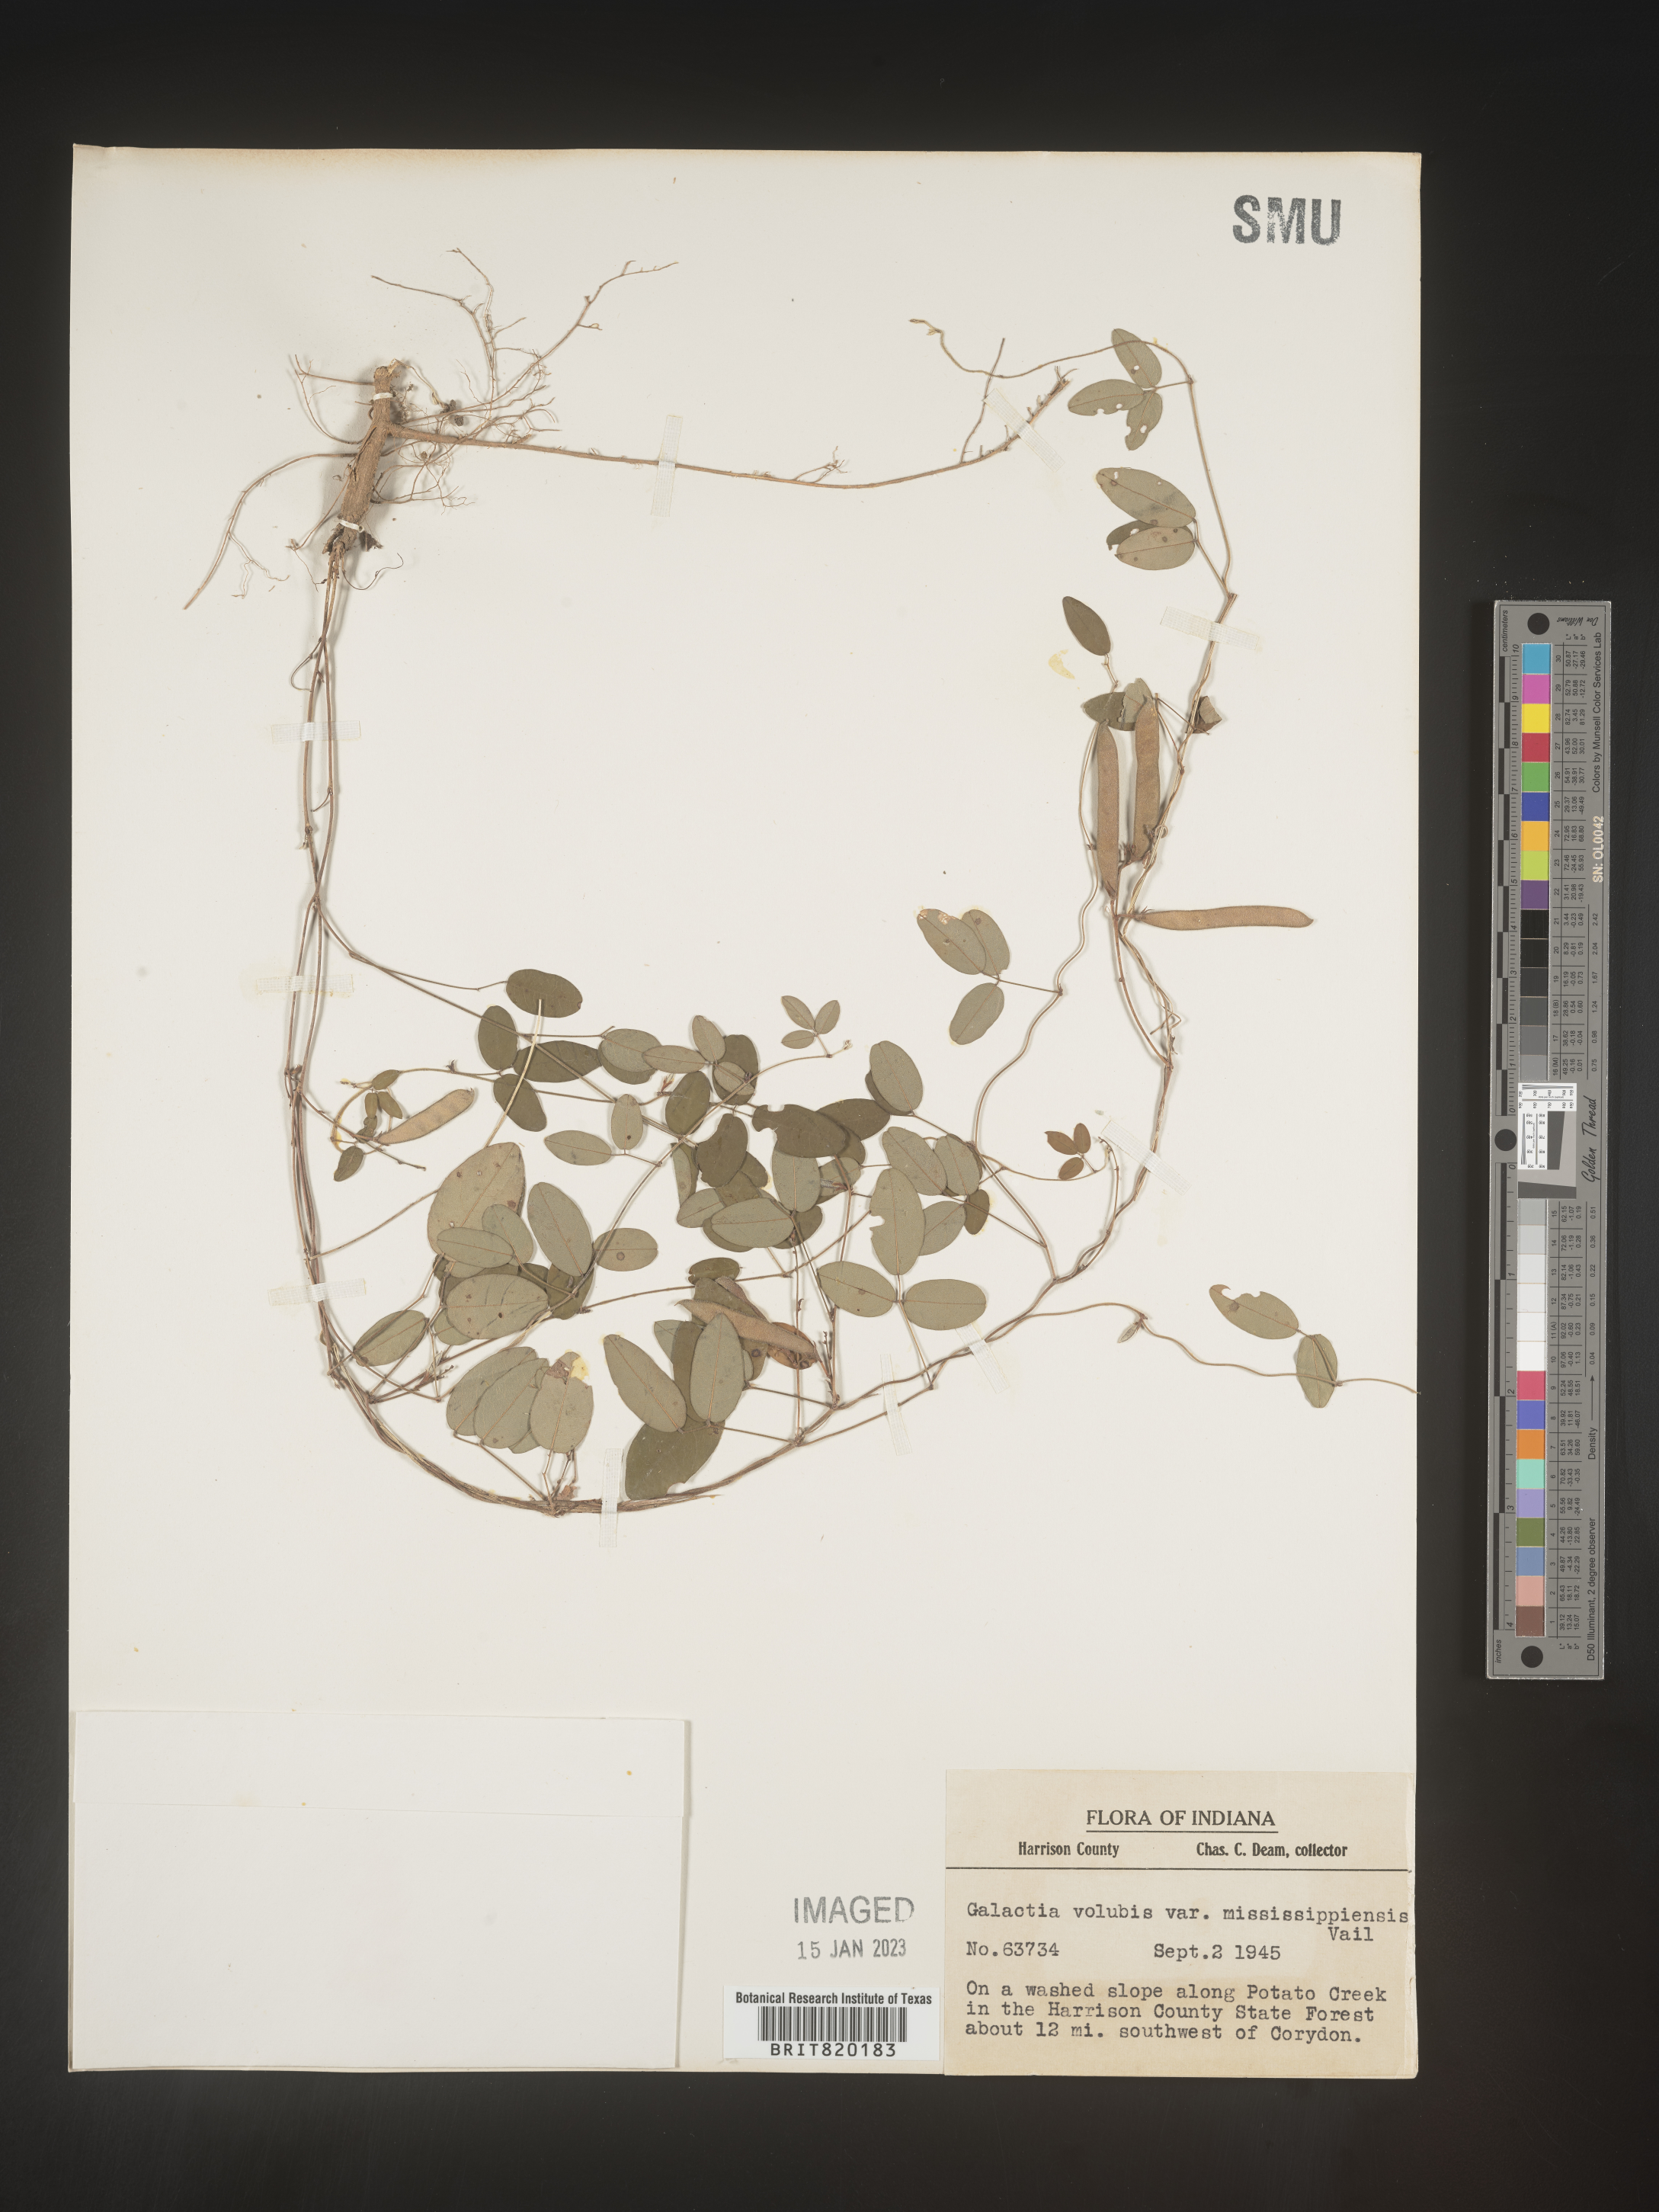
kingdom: Plantae
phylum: Tracheophyta
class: Magnoliopsida
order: Fabales
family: Fabaceae
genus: Galactia
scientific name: Galactia volubilis
